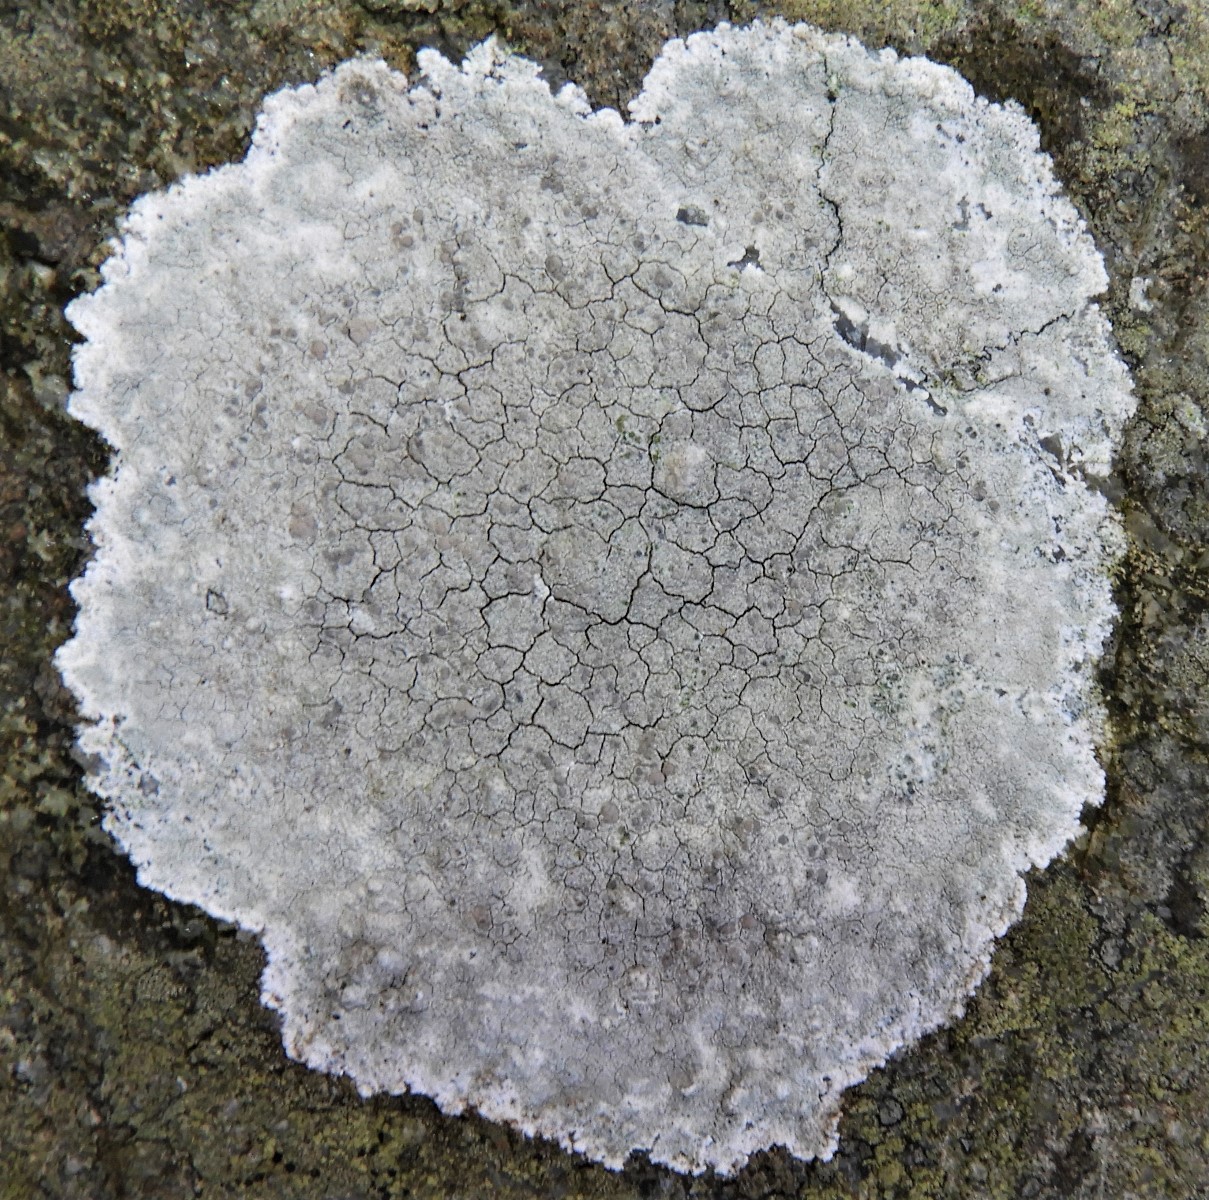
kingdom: Fungi
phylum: Ascomycota
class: Lecanoromycetes
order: Lecanorales
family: Lecanoraceae
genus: Glaucomaria
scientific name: Glaucomaria rupicola
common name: stengærde-kantskivelav
